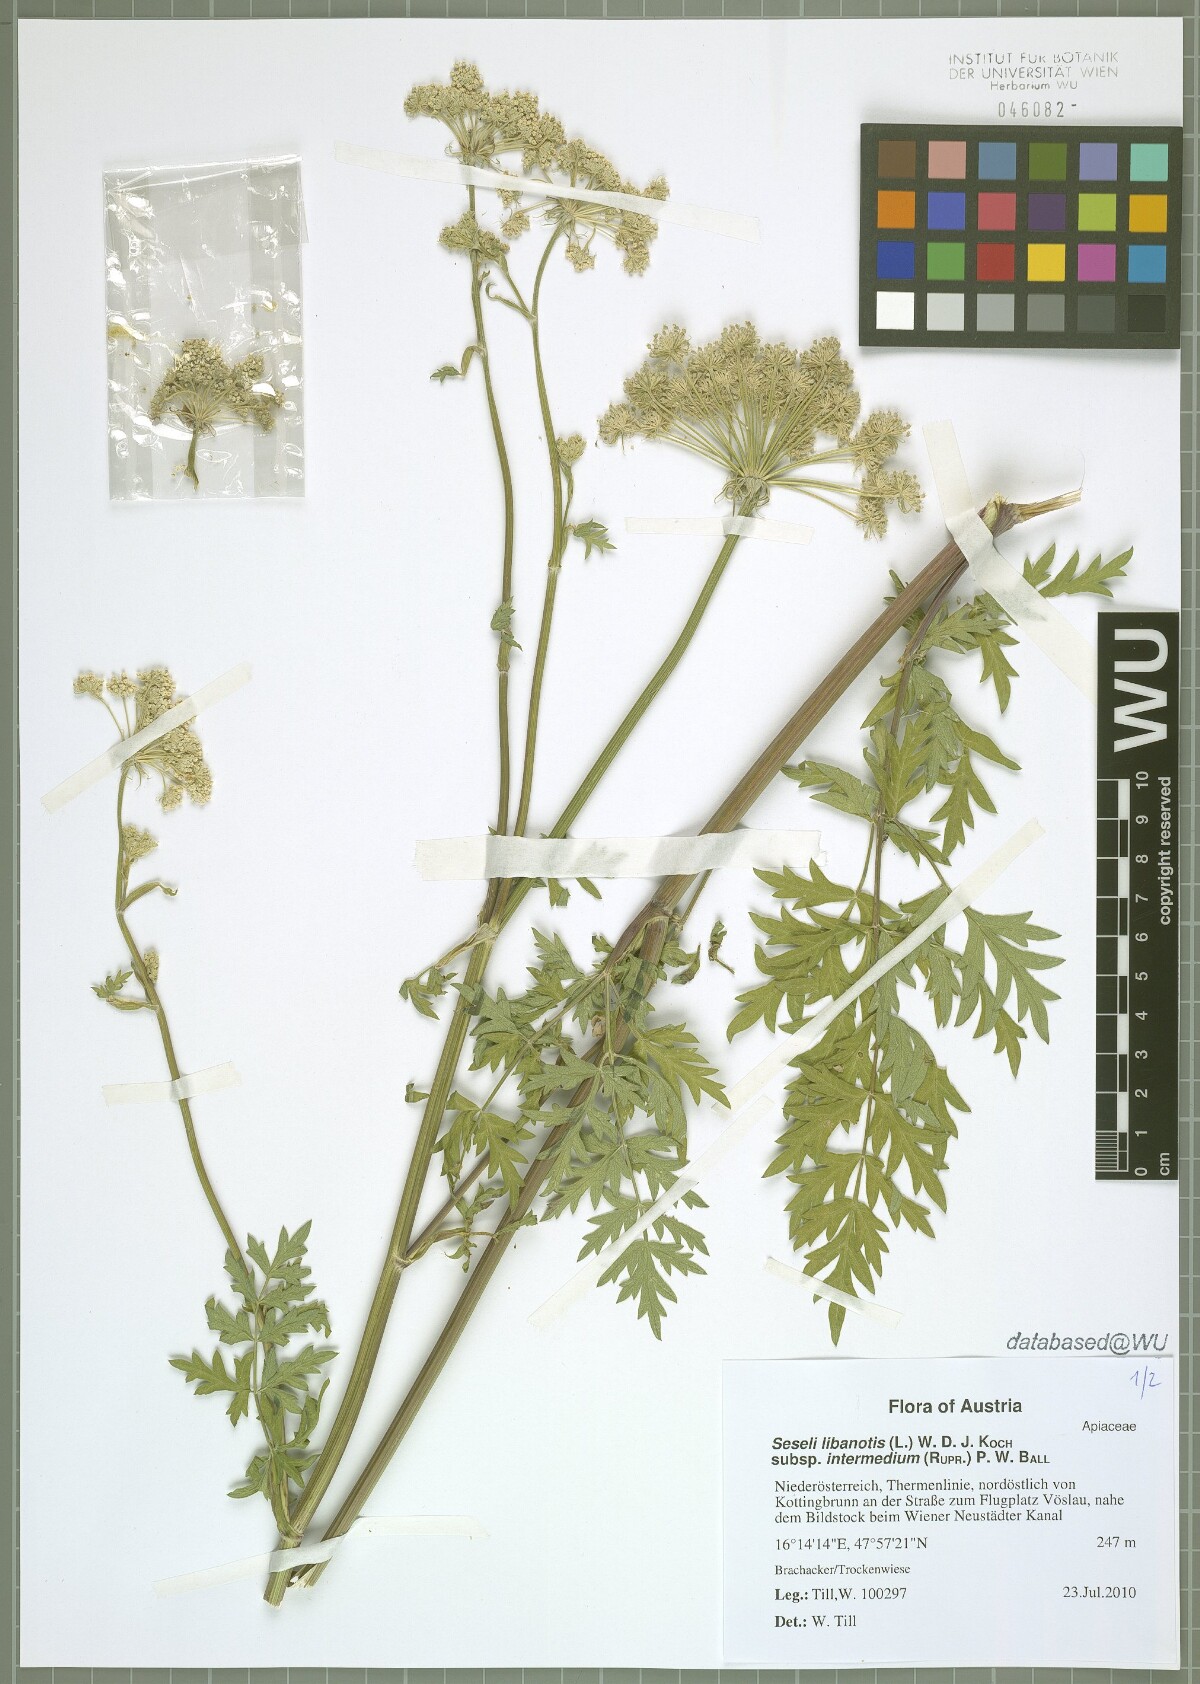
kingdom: Plantae
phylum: Tracheophyta
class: Magnoliopsida
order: Apiales
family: Apiaceae
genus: Seseli
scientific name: Seseli libanotis
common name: Mooncarrot
